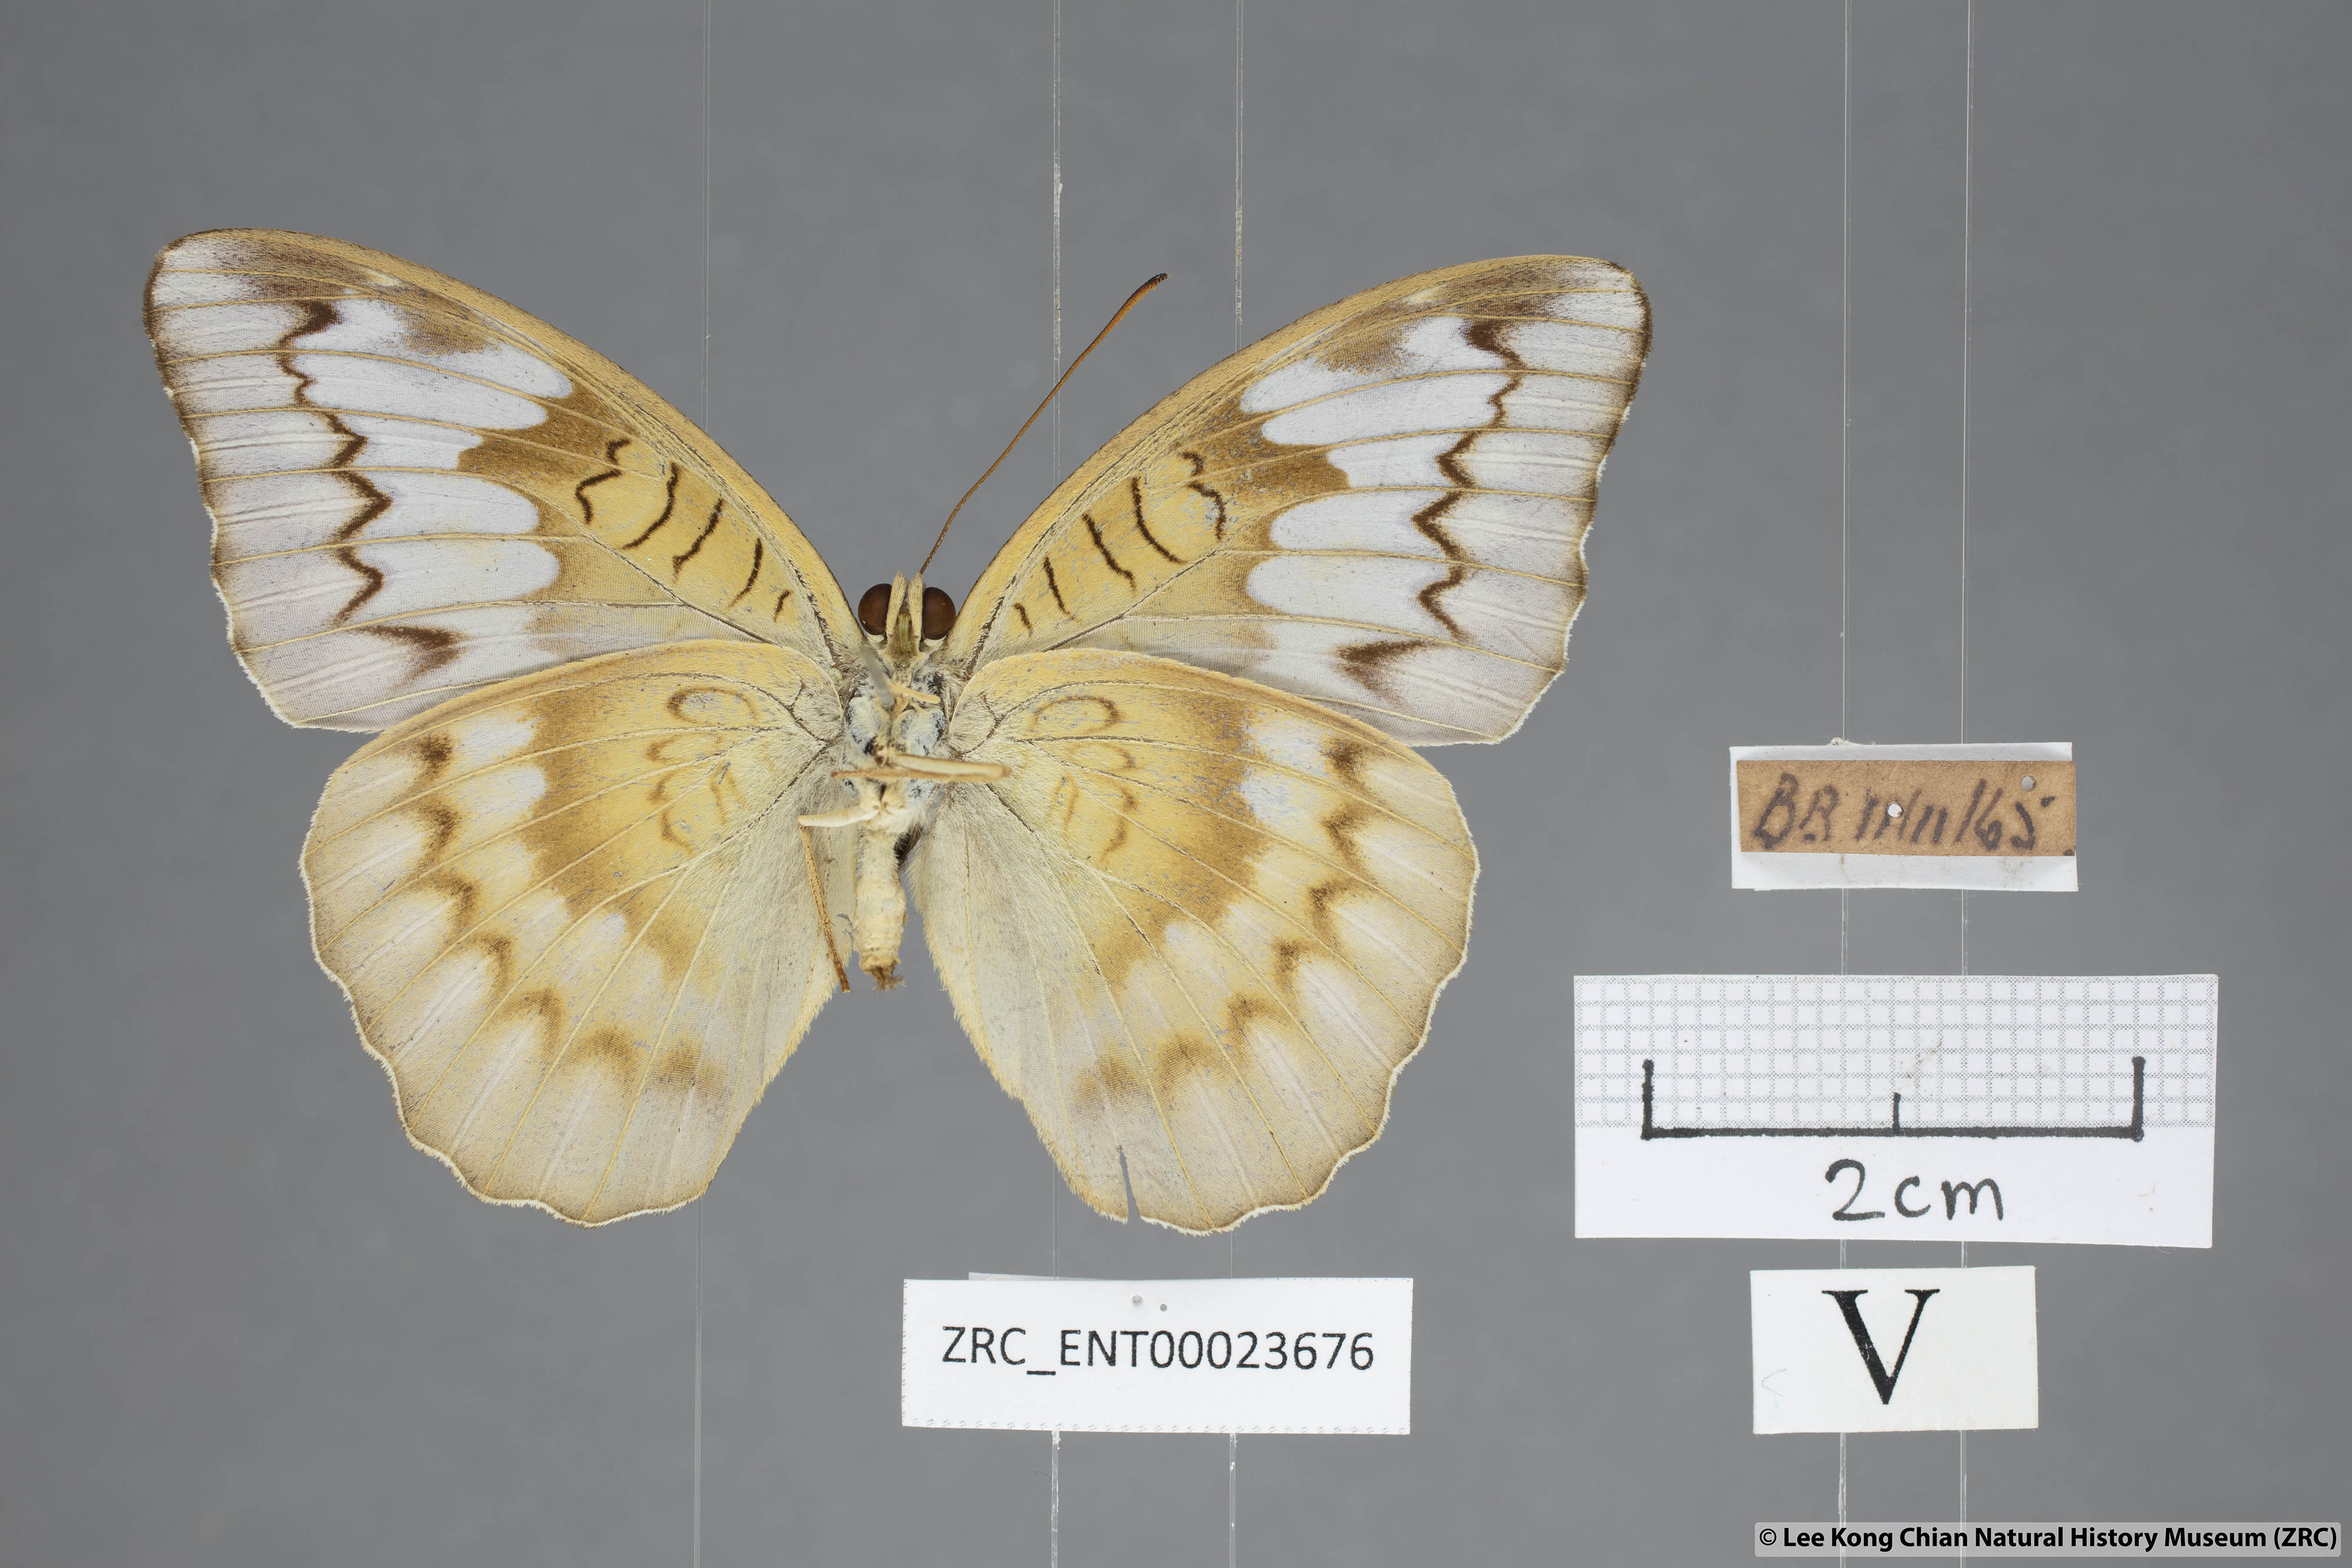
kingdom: Animalia
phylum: Arthropoda
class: Insecta
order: Lepidoptera
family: Nymphalidae
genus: Tanaecia
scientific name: Tanaecia iapis
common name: Horsfield's baron
